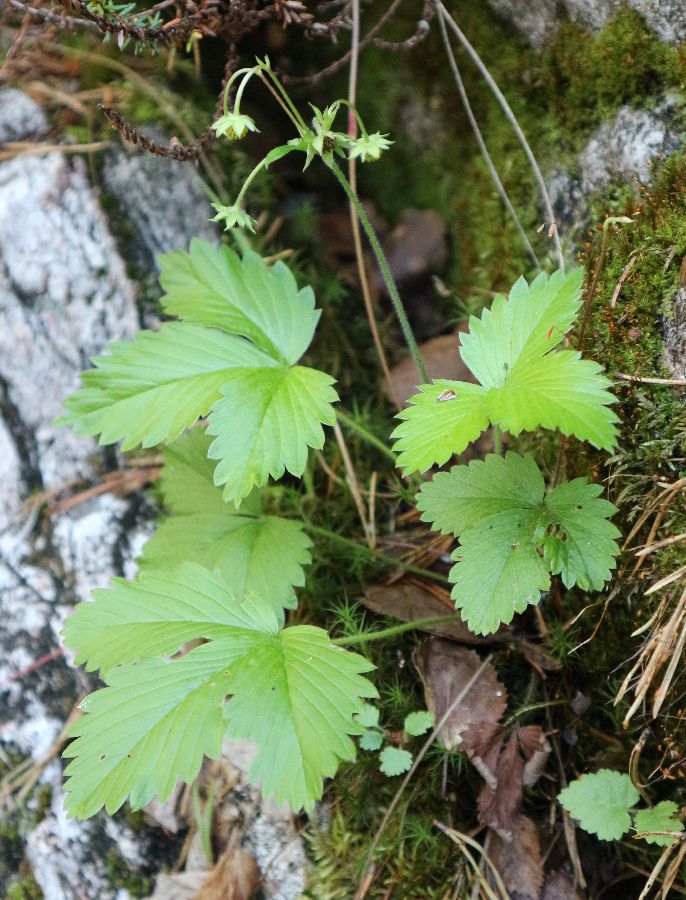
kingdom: Plantae
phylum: Tracheophyta
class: Magnoliopsida
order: Rosales
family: Rosaceae
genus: Fragaria
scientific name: Fragaria vesca
